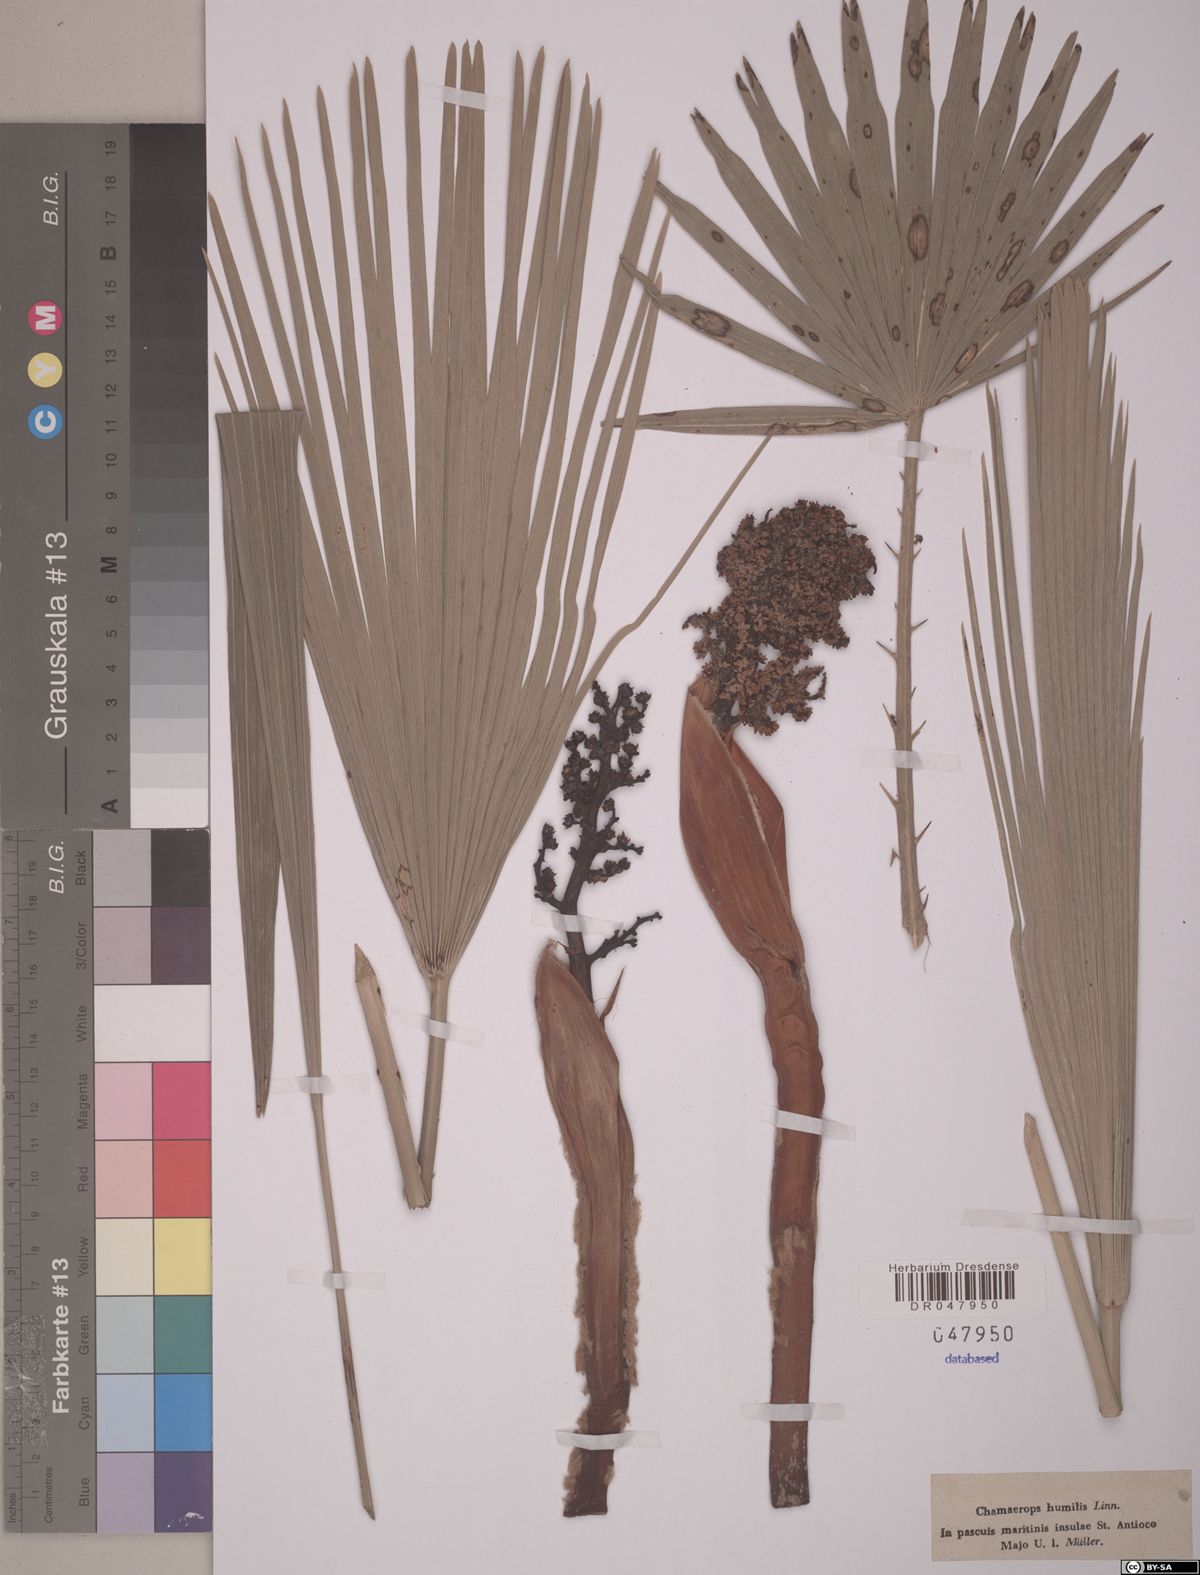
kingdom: Plantae
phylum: Tracheophyta
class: Liliopsida
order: Arecales
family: Arecaceae
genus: Chamaerops
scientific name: Chamaerops humilis
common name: Dwarf fan palm
